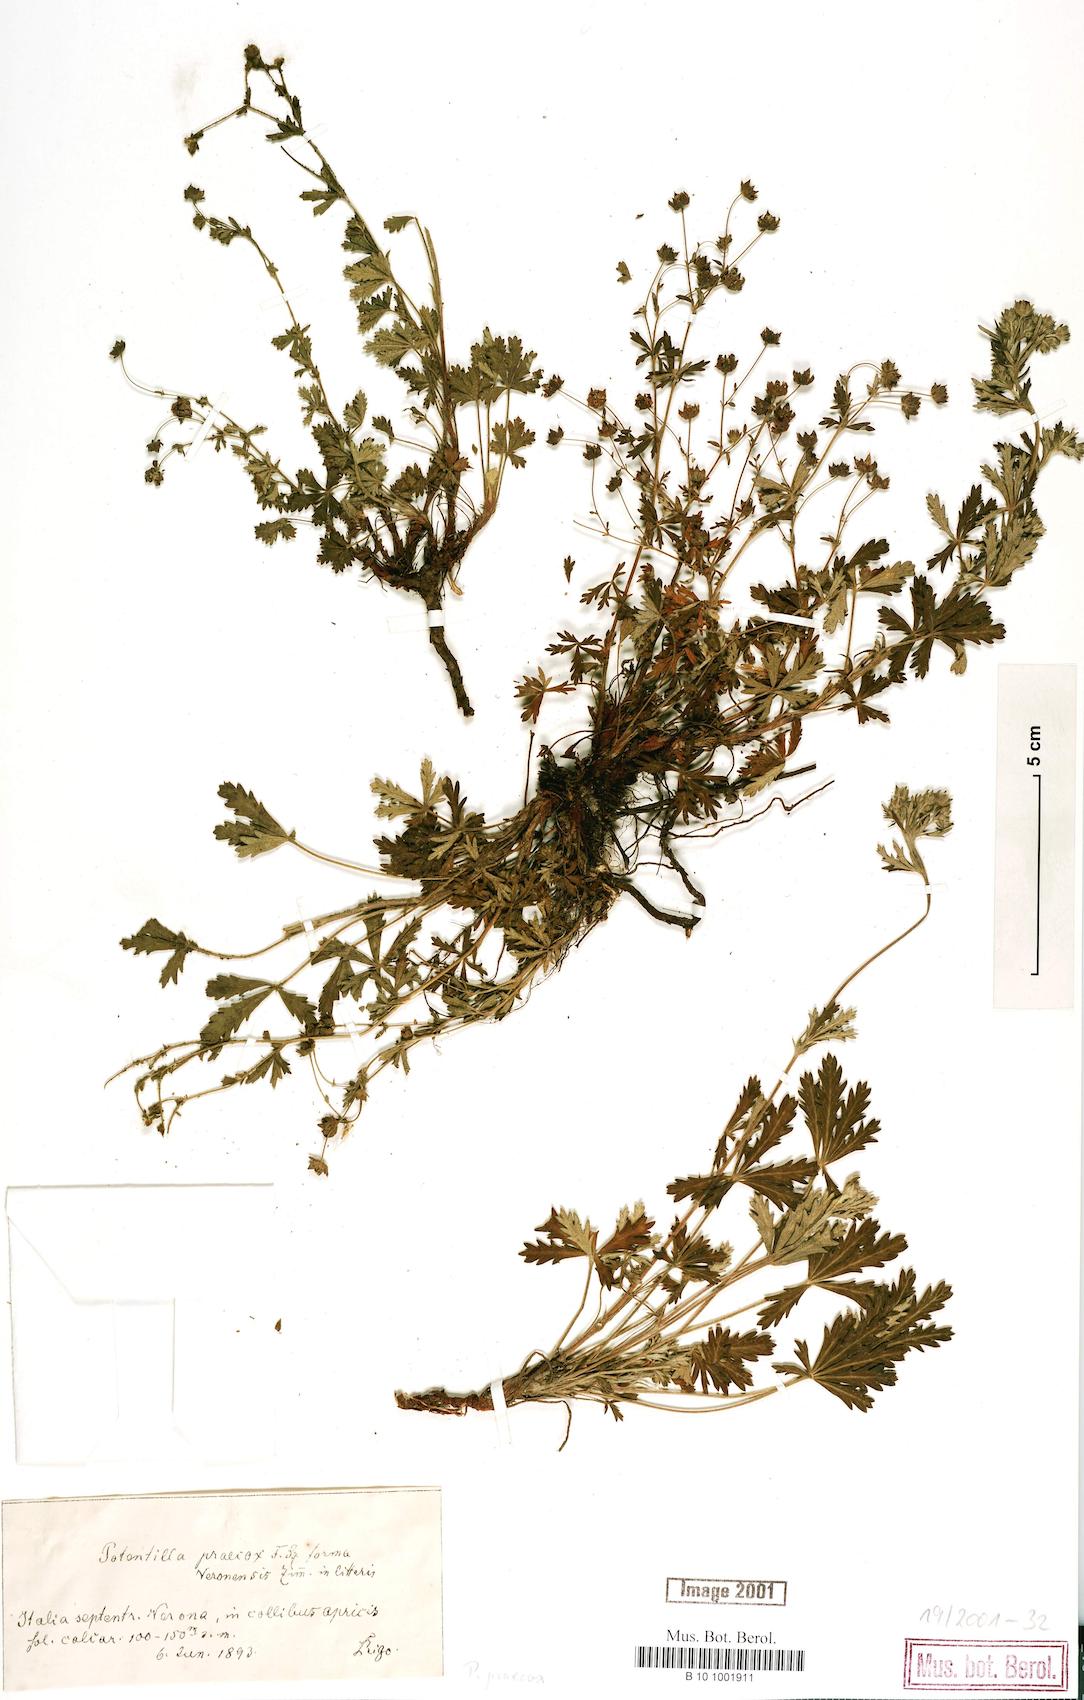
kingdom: Plantae
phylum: Tracheophyta
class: Magnoliopsida
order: Rosales
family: Rosaceae
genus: Potentilla
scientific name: Potentilla praecox
